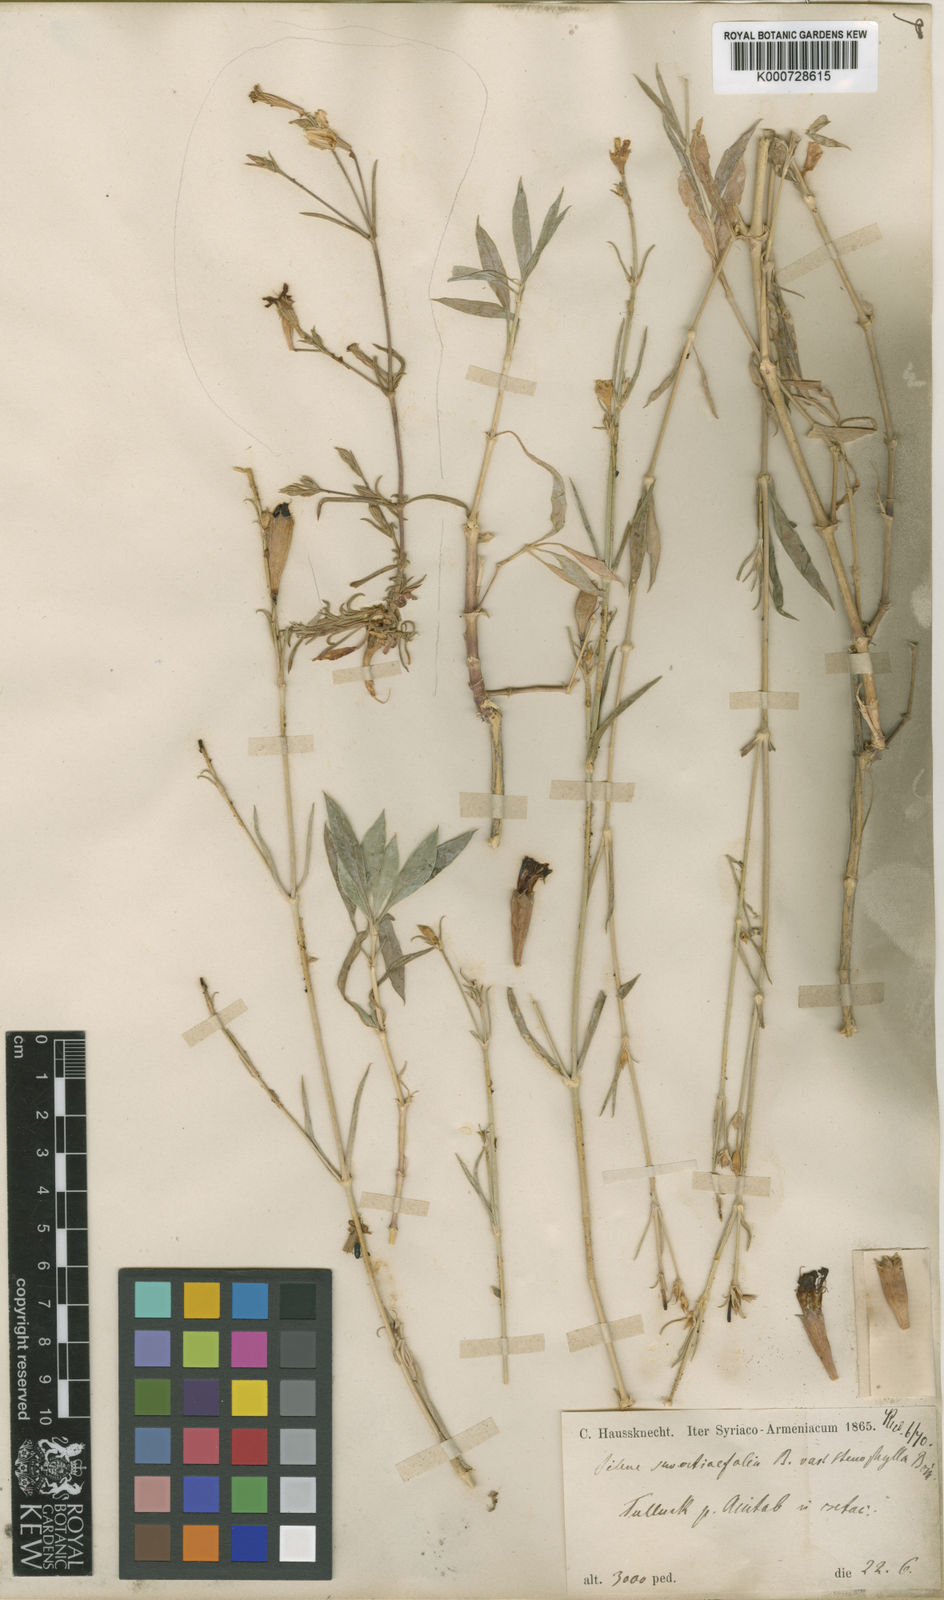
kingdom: Plantae
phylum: Tracheophyta
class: Magnoliopsida
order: Caryophyllales
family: Caryophyllaceae
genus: Silene
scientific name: Silene swertiifolia
